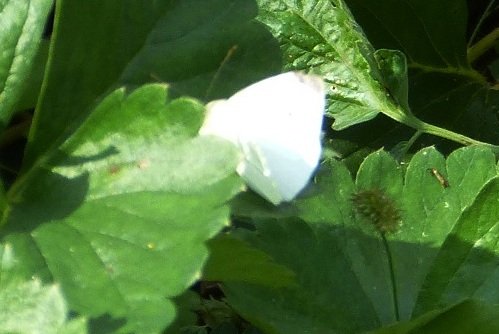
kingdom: Animalia
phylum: Arthropoda
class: Insecta
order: Lepidoptera
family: Pieridae
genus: Pieris
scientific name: Pieris rapae
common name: Cabbage White
